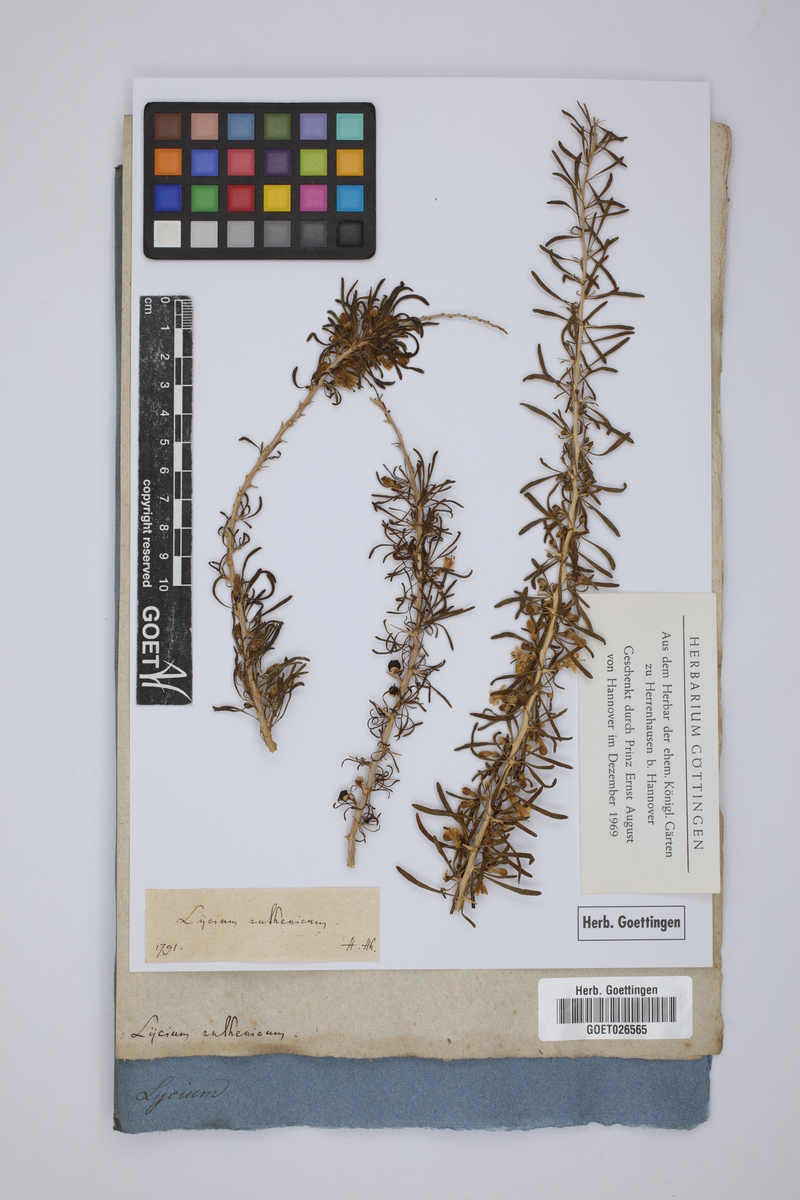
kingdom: Plantae
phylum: Tracheophyta
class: Magnoliopsida
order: Solanales
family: Solanaceae
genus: Lycium
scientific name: Lycium ruthenicum
